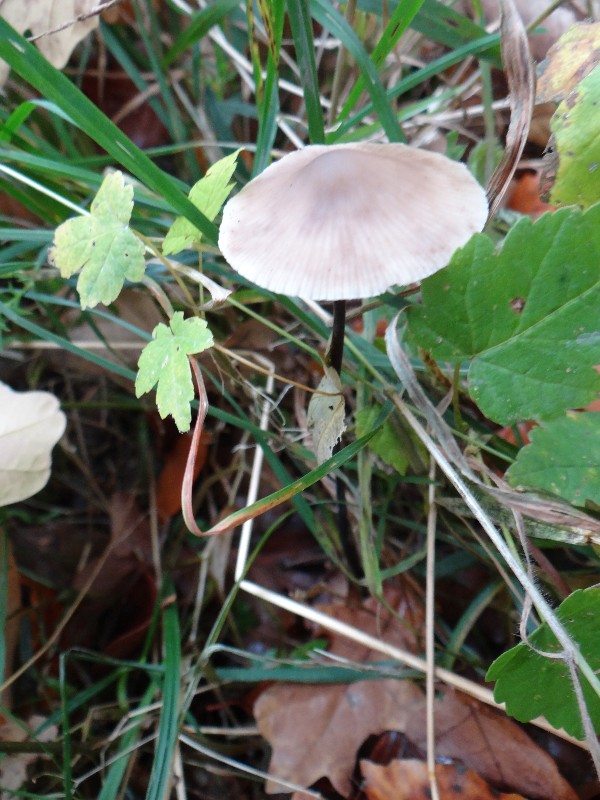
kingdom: Fungi
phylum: Basidiomycota
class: Agaricomycetes
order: Agaricales
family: Omphalotaceae
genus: Mycetinis
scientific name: Mycetinis alliaceus
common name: stor løghat
